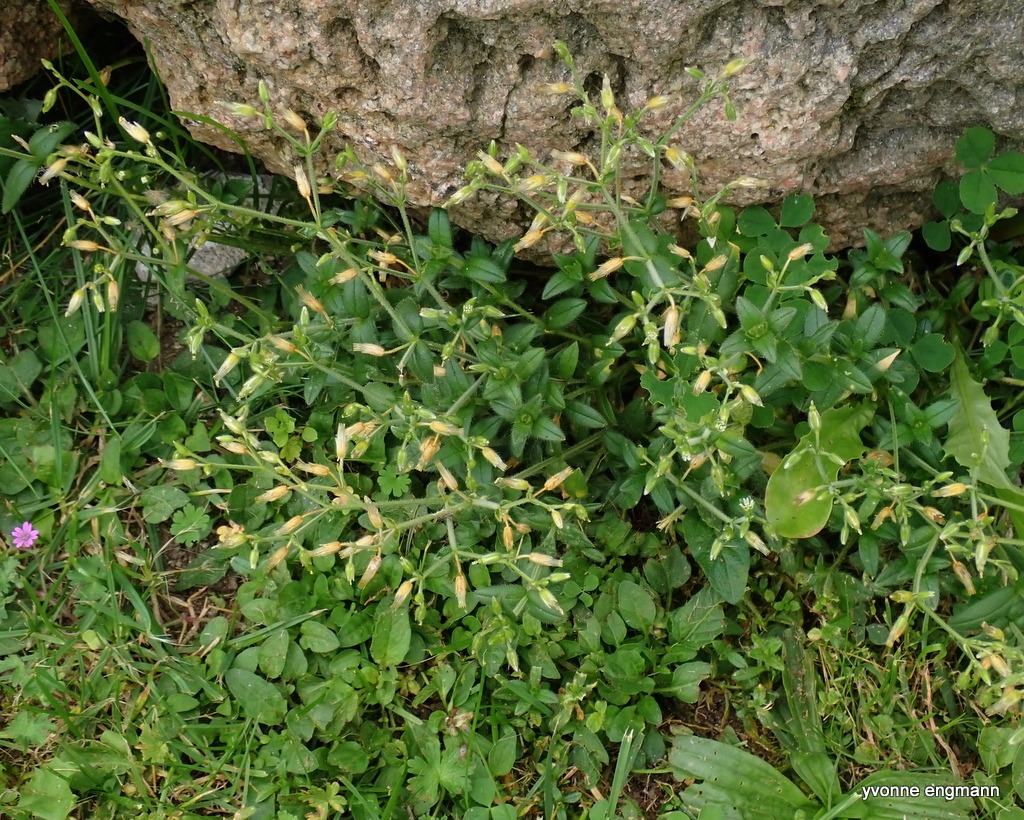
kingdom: Plantae
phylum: Tracheophyta
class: Magnoliopsida
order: Caryophyllales
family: Caryophyllaceae
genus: Cerastium
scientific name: Cerastium fontanum
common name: Almindelig hønsetarm
